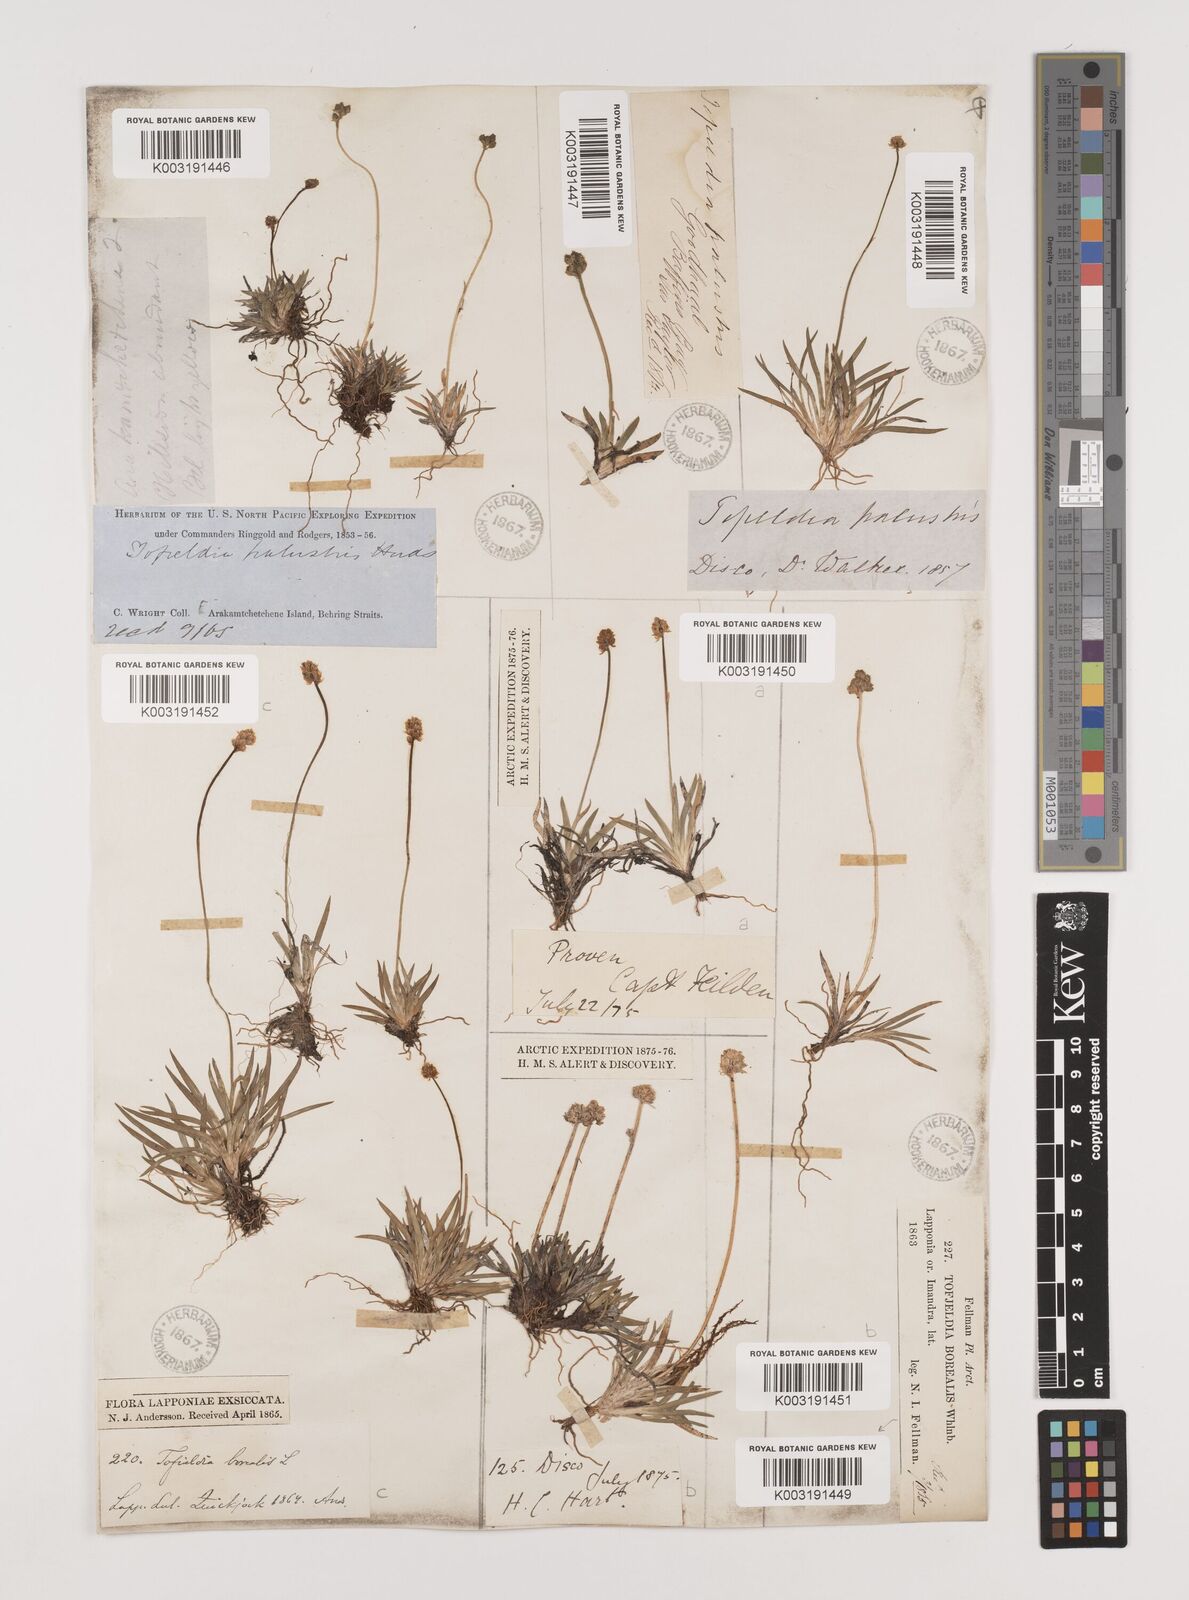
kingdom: Plantae
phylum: Tracheophyta
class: Liliopsida
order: Alismatales
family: Tofieldiaceae
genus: Tofieldia
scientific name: Tofieldia calyculata
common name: German-asphodel
